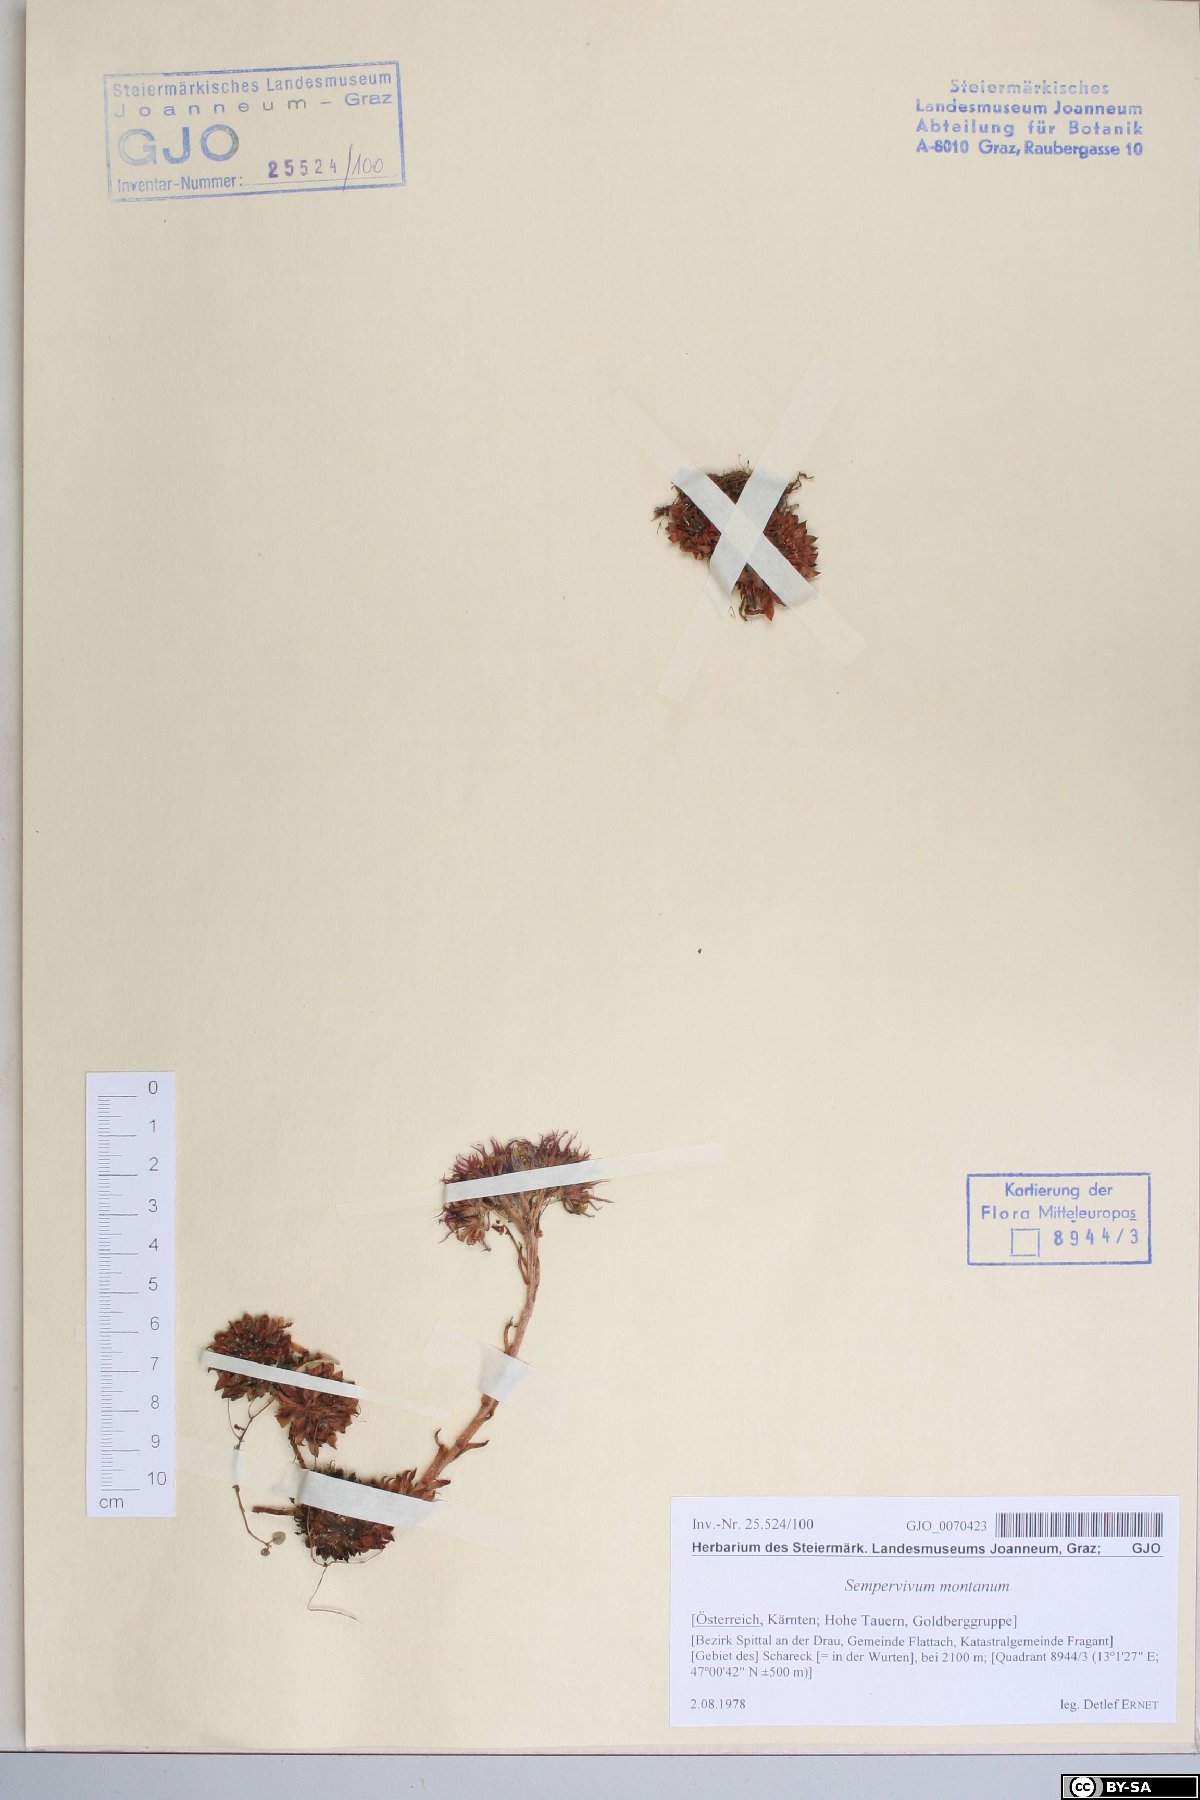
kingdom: Plantae
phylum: Tracheophyta
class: Magnoliopsida
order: Saxifragales
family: Crassulaceae
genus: Sempervivum
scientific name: Sempervivum montanum
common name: Mountain house-leek
